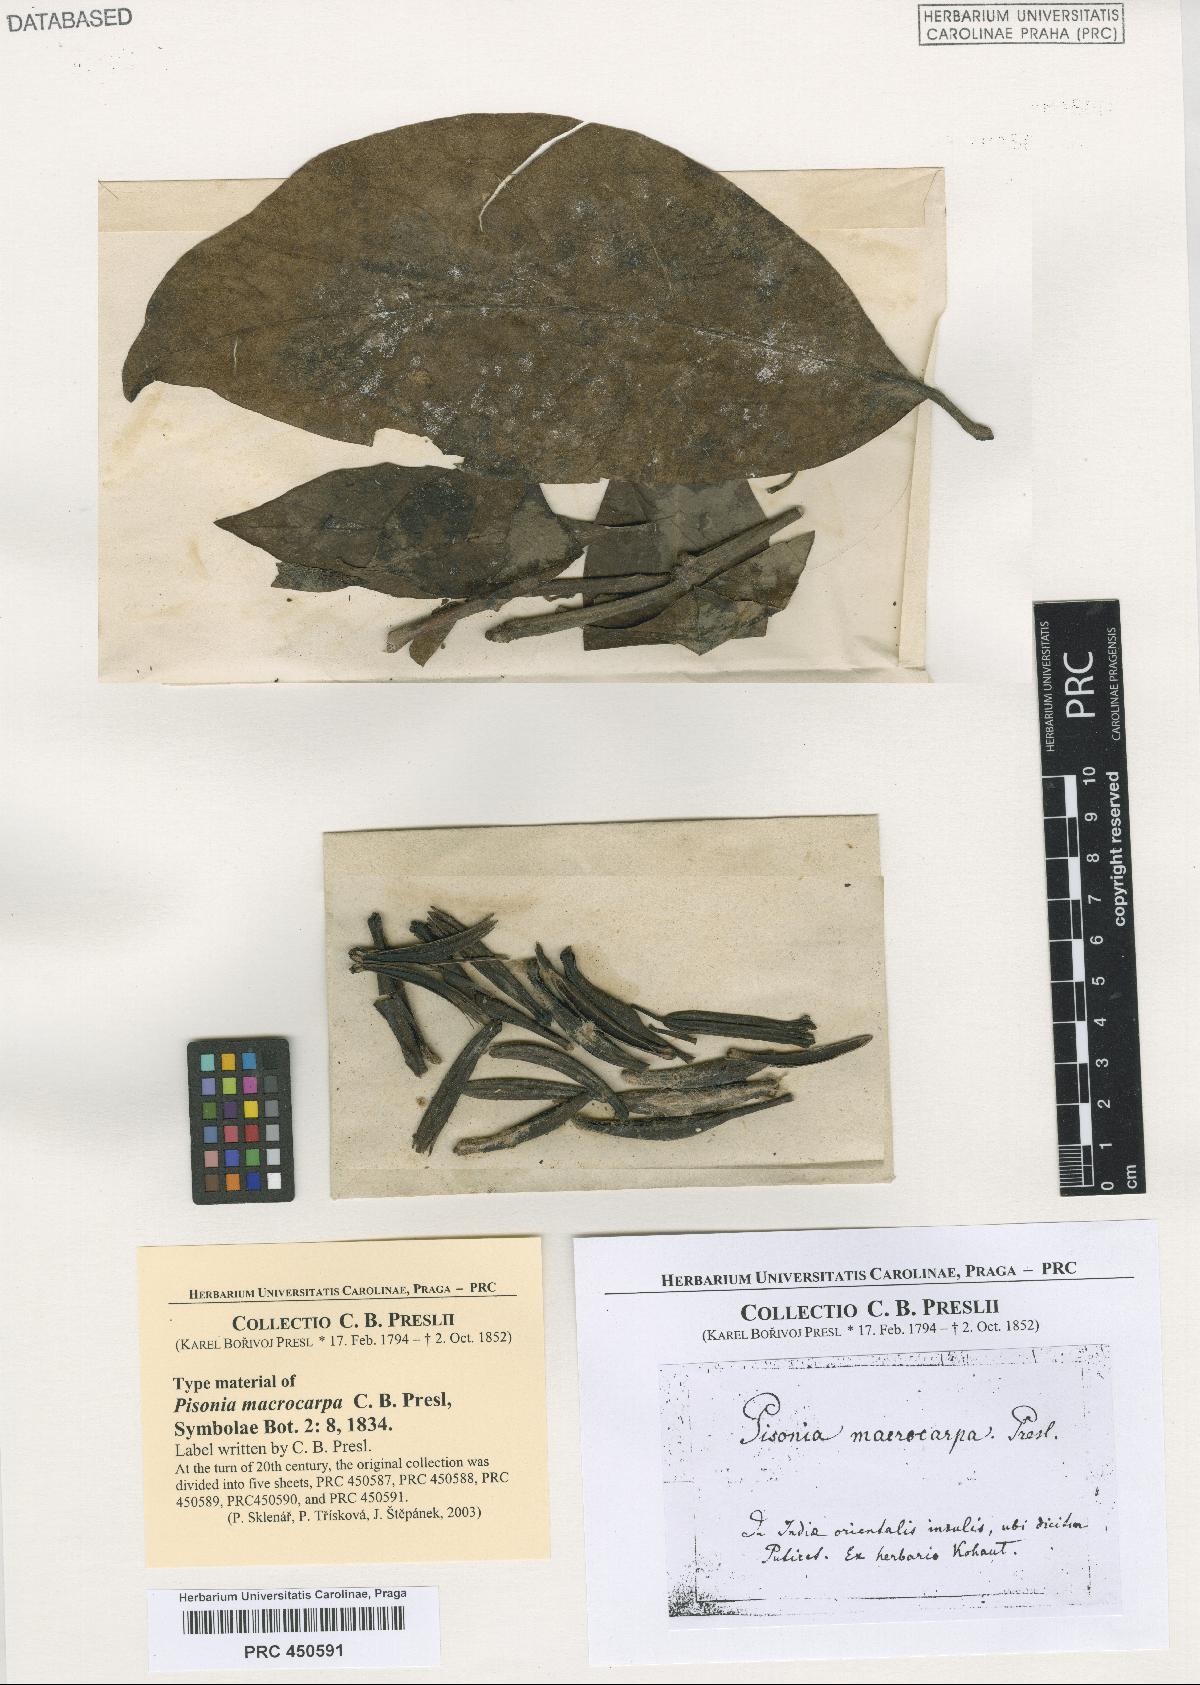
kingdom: Plantae
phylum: Tracheophyta
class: Magnoliopsida
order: Caryophyllales
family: Nyctaginaceae
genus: Ceodes
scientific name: Ceodes umbellifera
